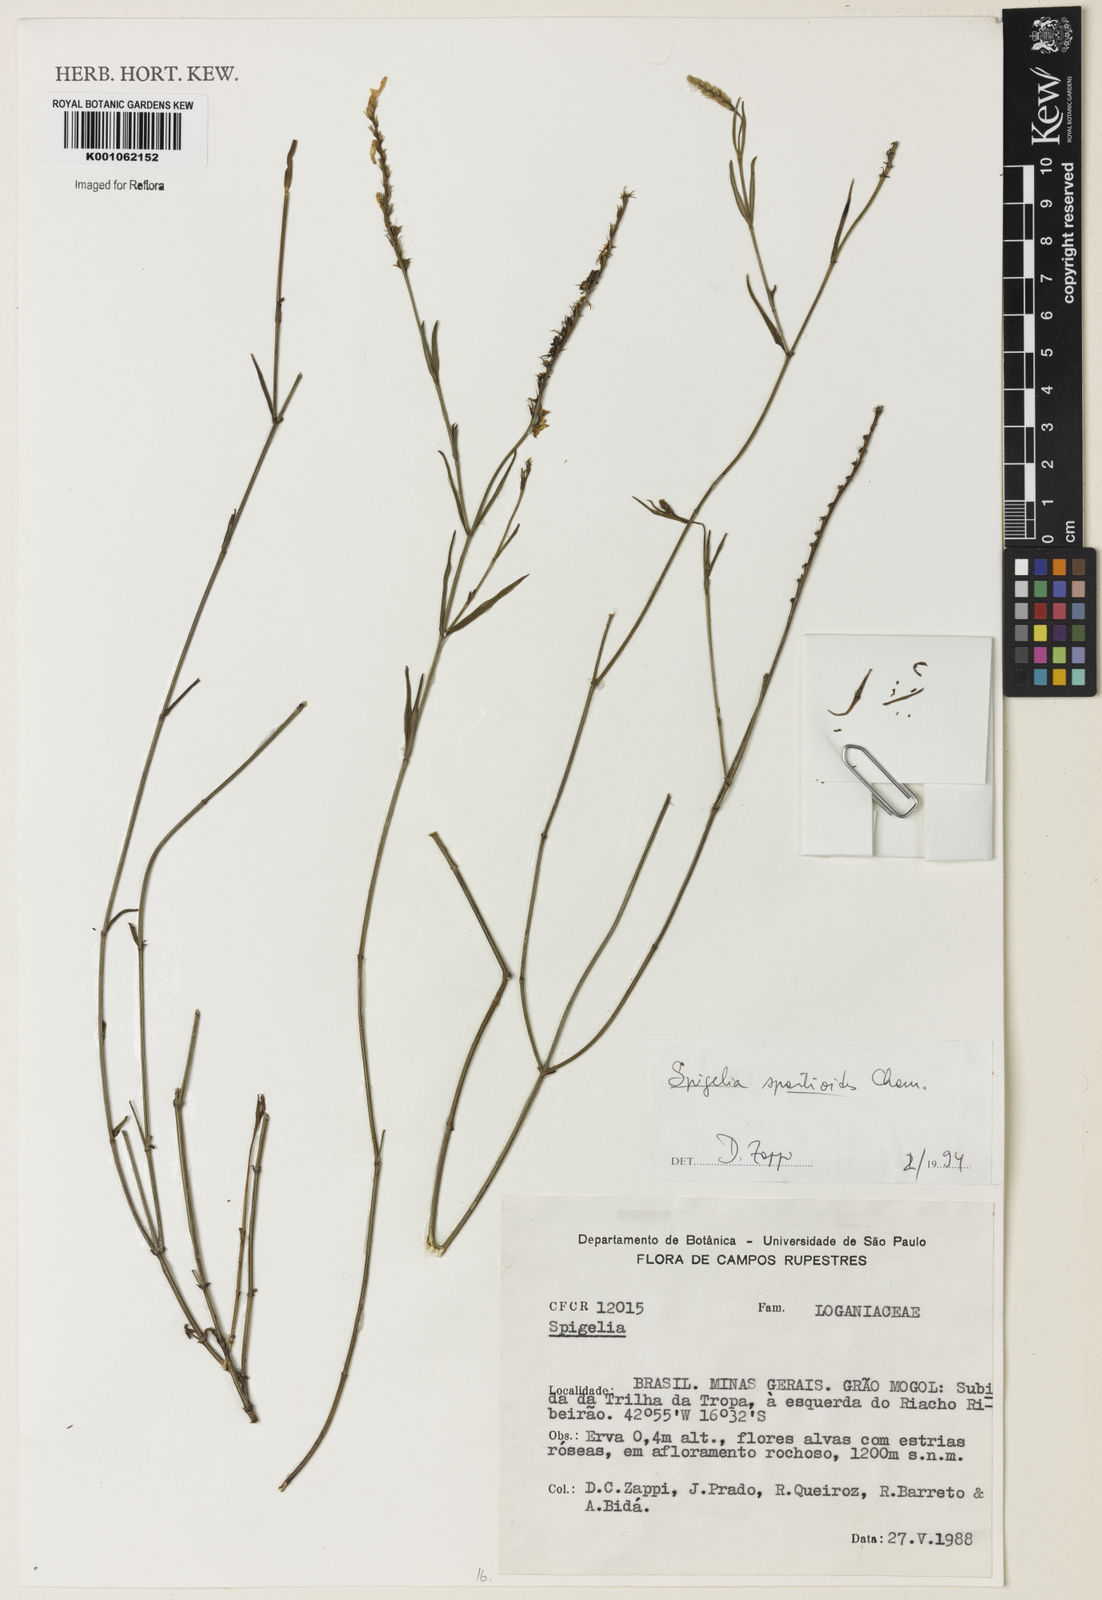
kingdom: Plantae
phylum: Tracheophyta
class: Magnoliopsida
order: Gentianales
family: Loganiaceae
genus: Spigelia
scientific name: Spigelia spartioides
